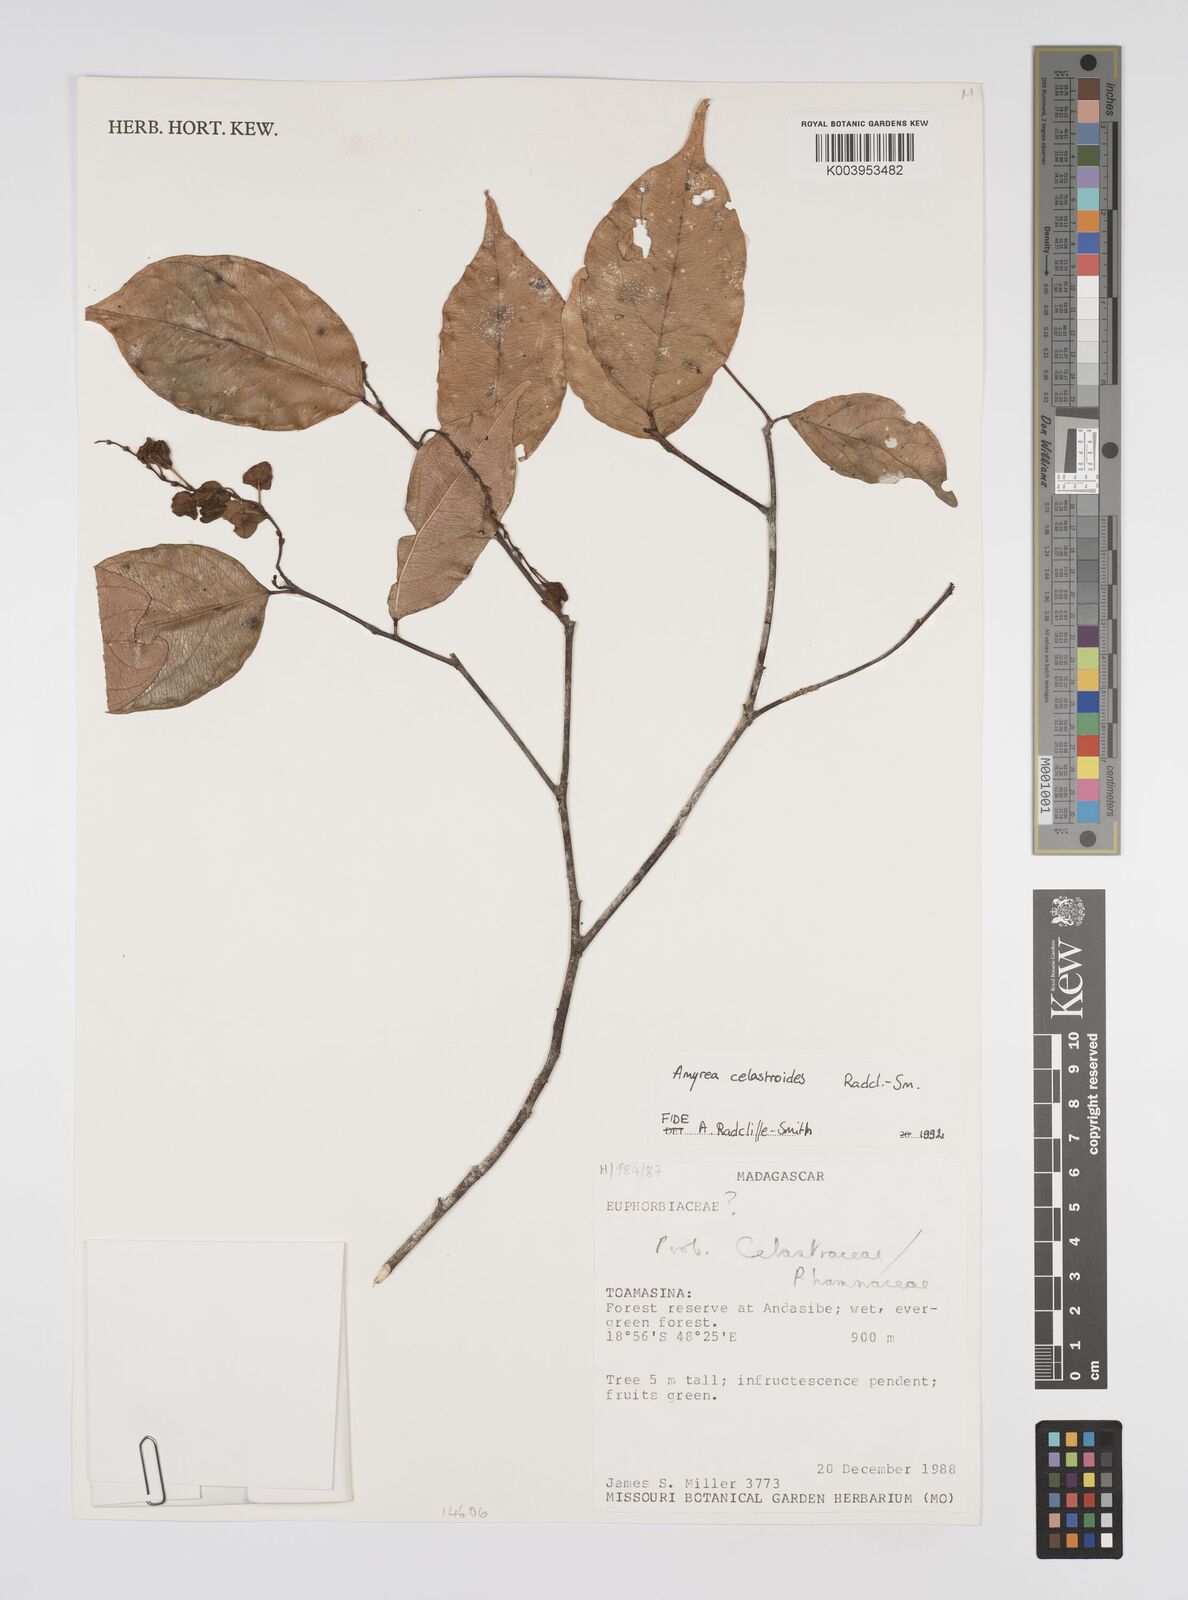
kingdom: Plantae
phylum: Tracheophyta
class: Magnoliopsida
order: Malpighiales
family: Euphorbiaceae
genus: Amyrea
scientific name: Amyrea celastroides
